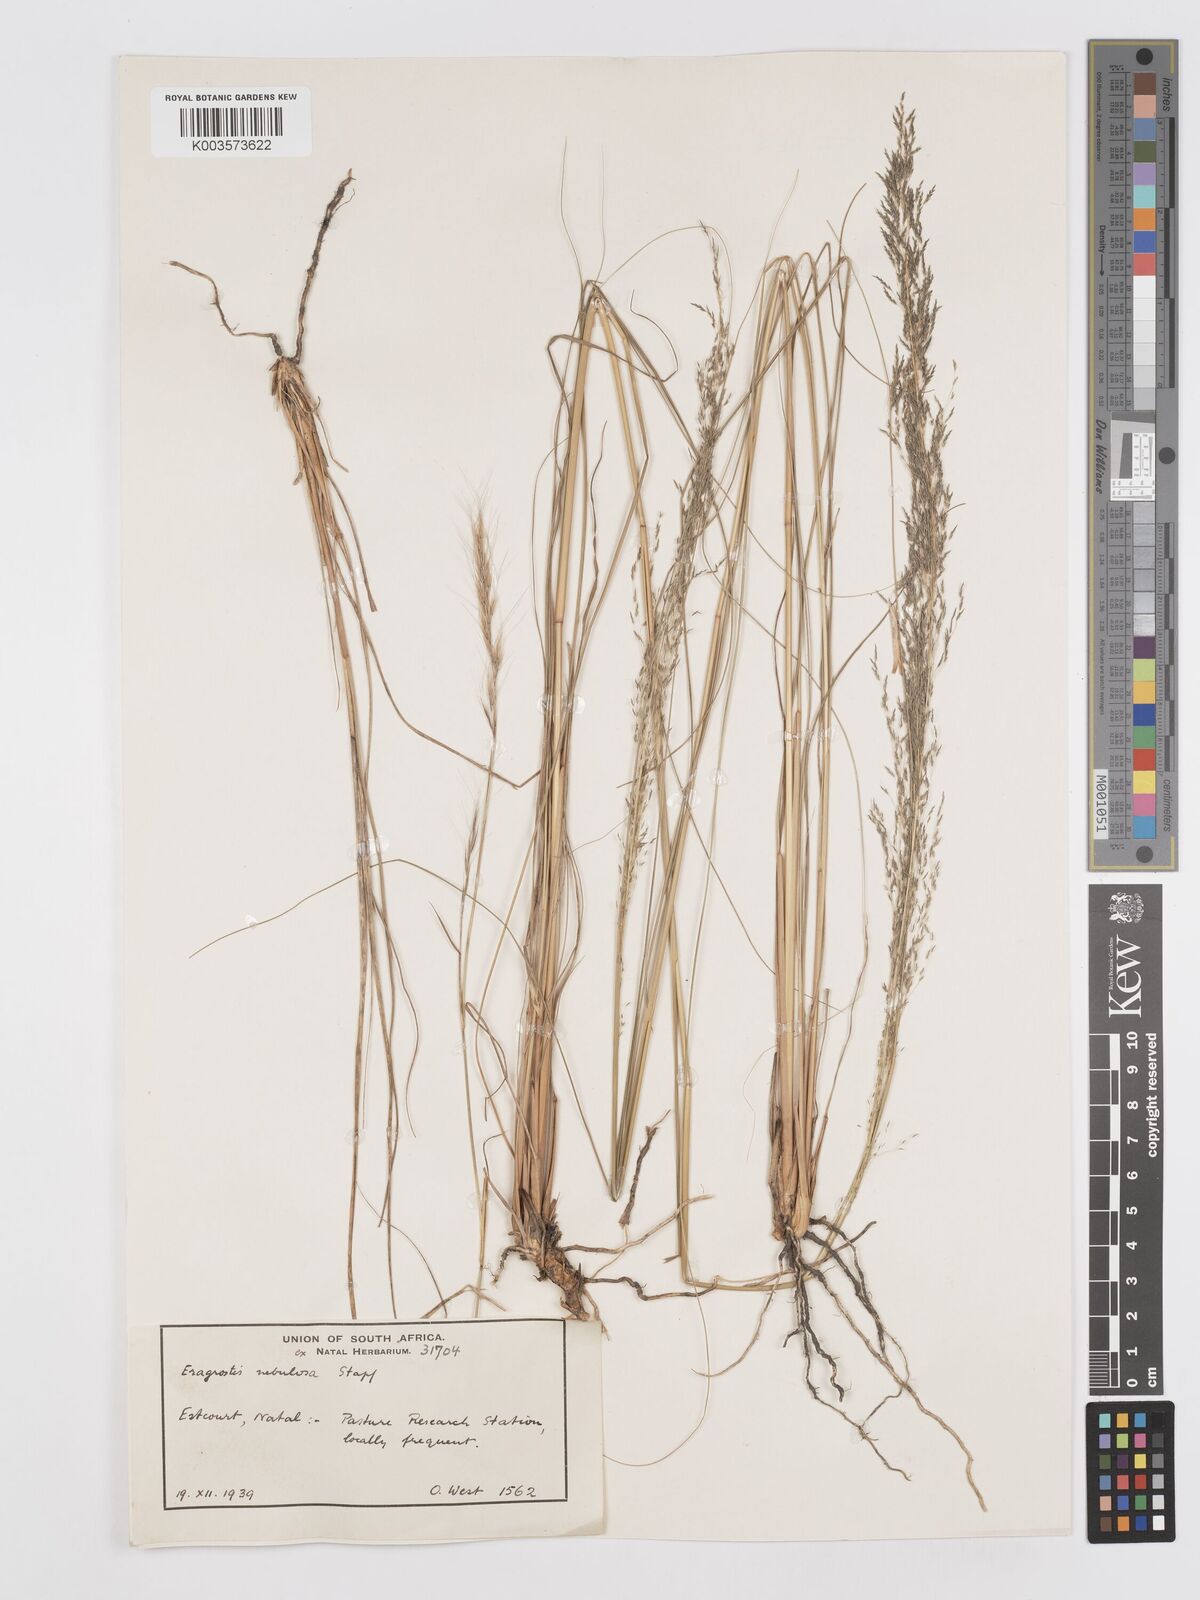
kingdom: Plantae
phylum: Tracheophyta
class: Liliopsida
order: Poales
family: Poaceae
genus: Eragrostis
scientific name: Eragrostis planiculmis
